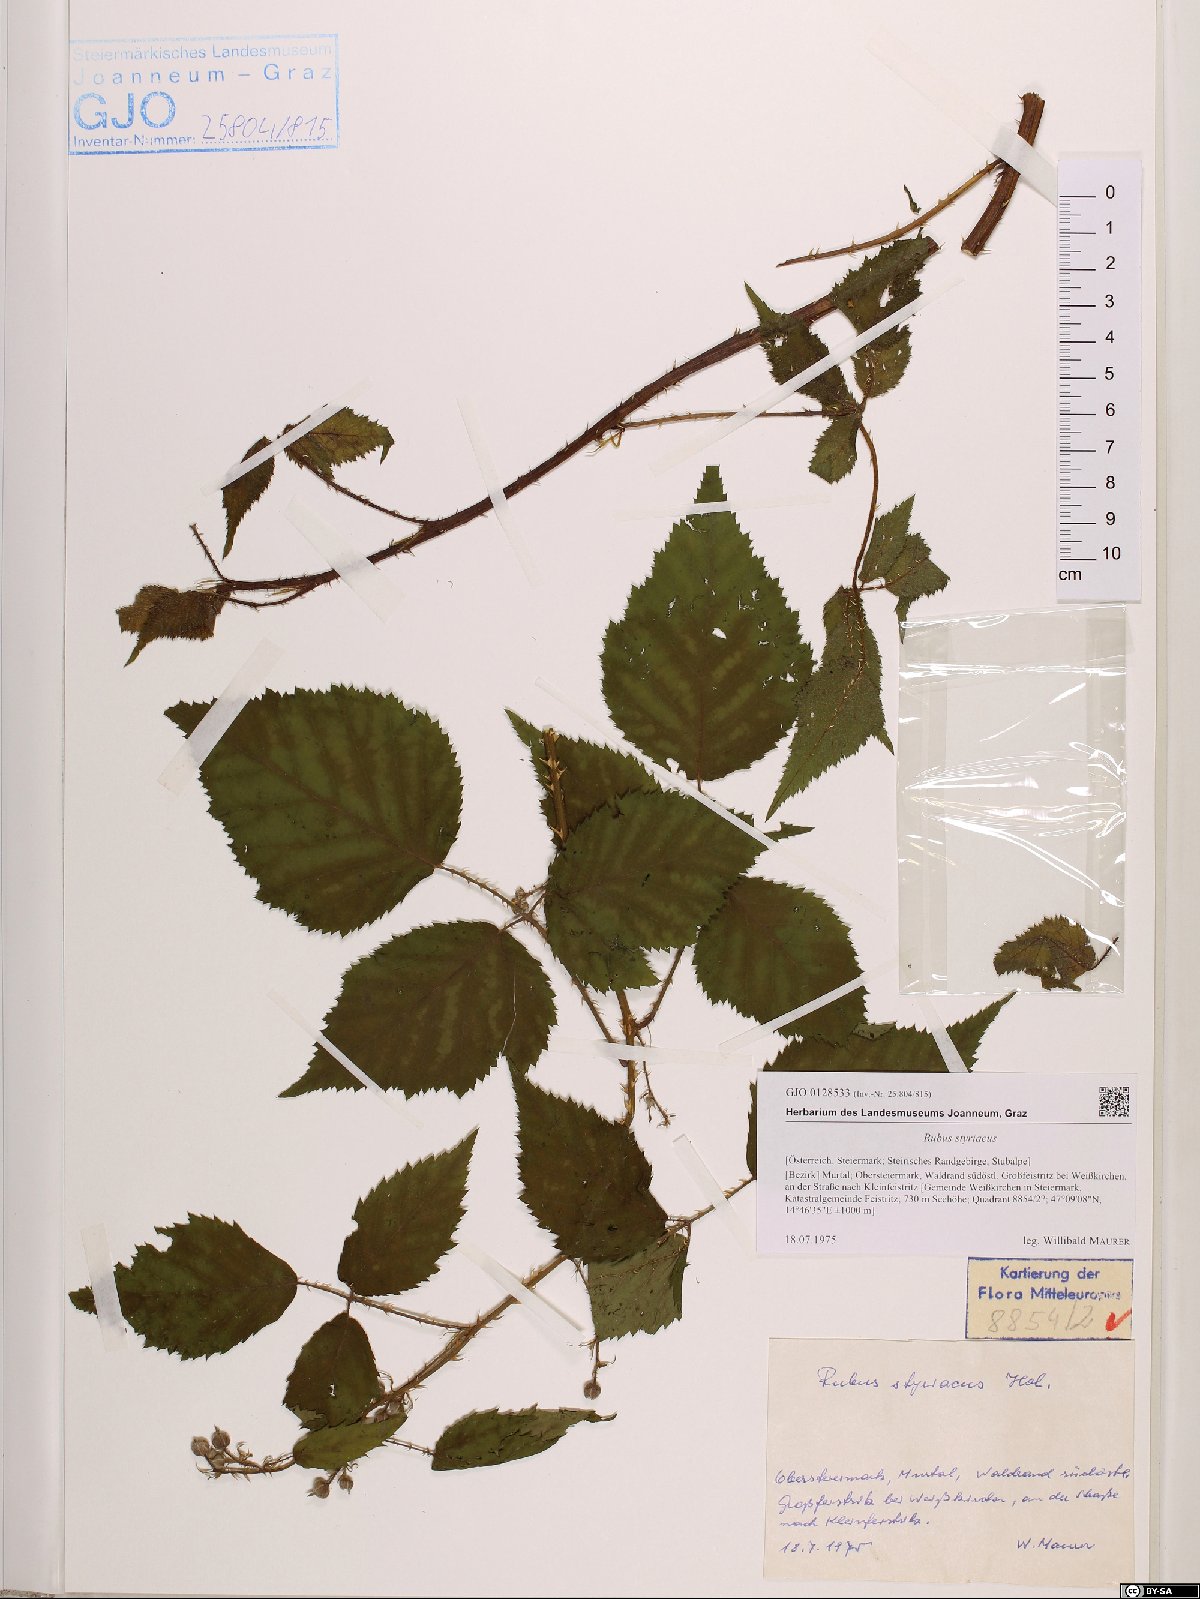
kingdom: Plantae
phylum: Tracheophyta
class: Magnoliopsida
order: Rosales
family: Rosaceae
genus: Rubus
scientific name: Rubus styriacus
